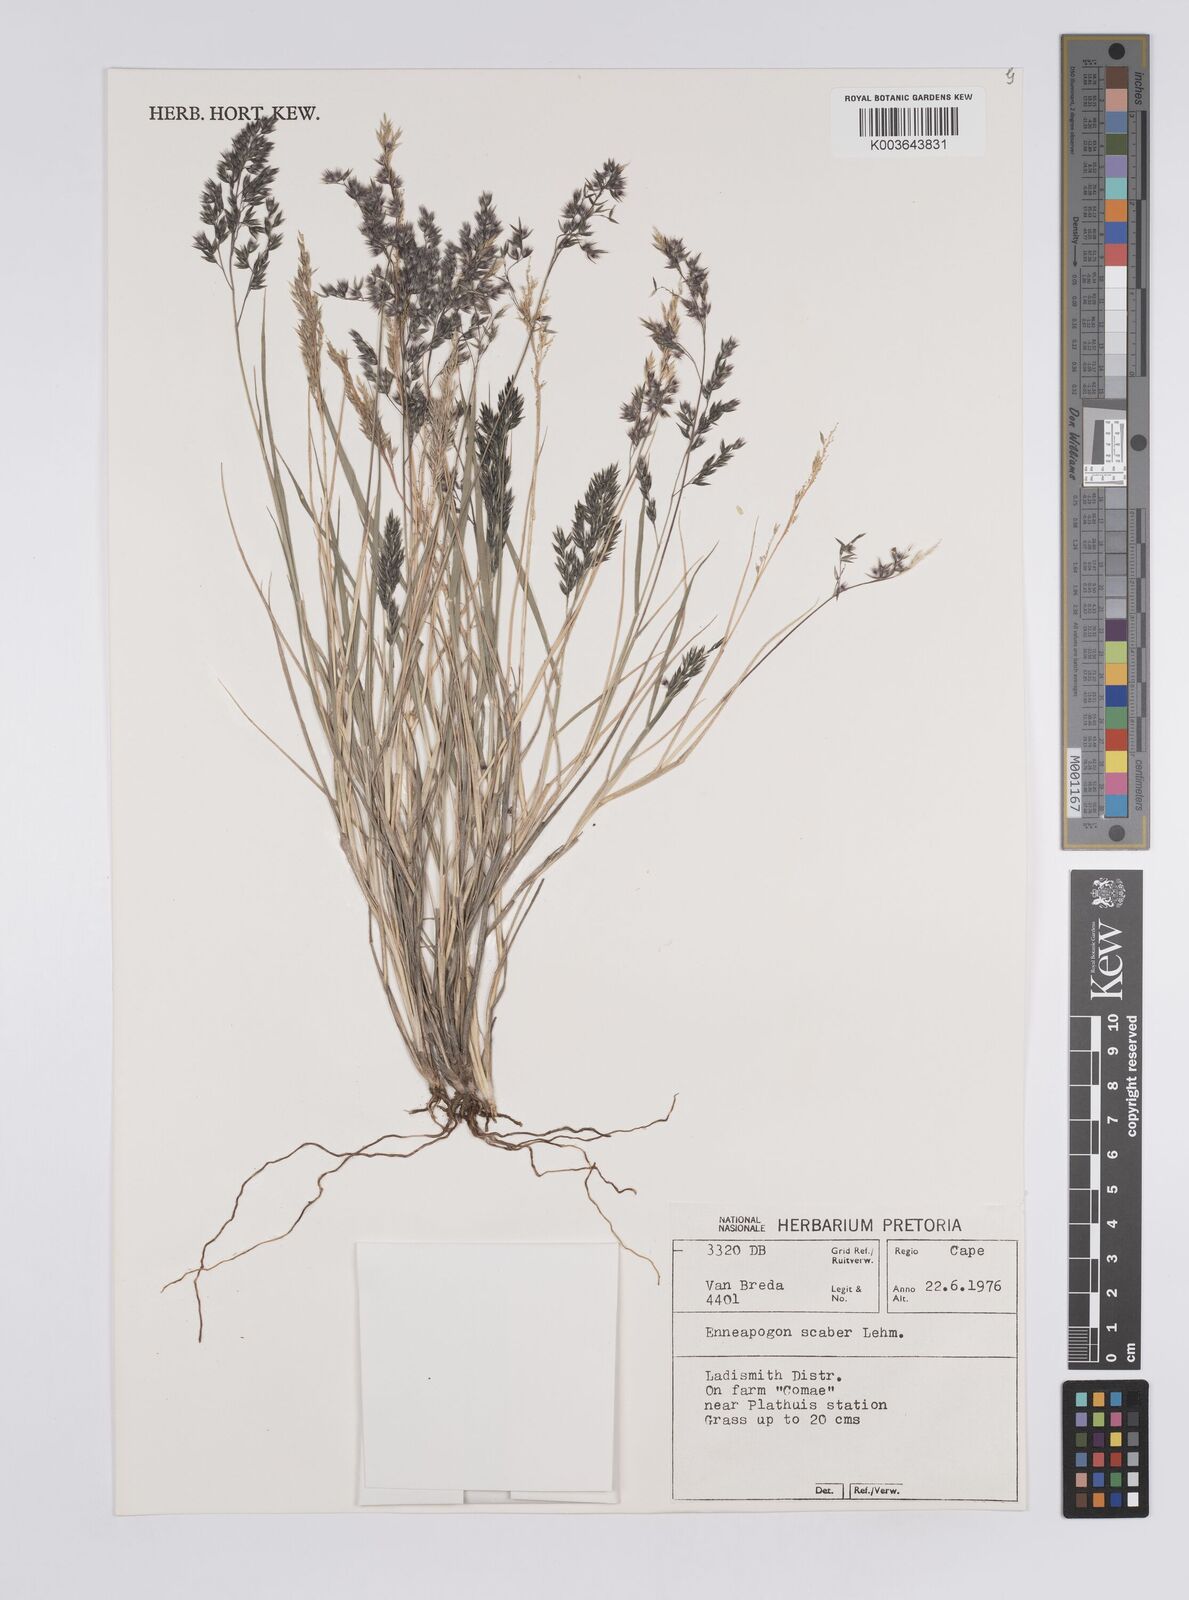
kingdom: Plantae
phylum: Tracheophyta
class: Liliopsida
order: Poales
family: Poaceae
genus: Enneapogon
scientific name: Enneapogon scaber
